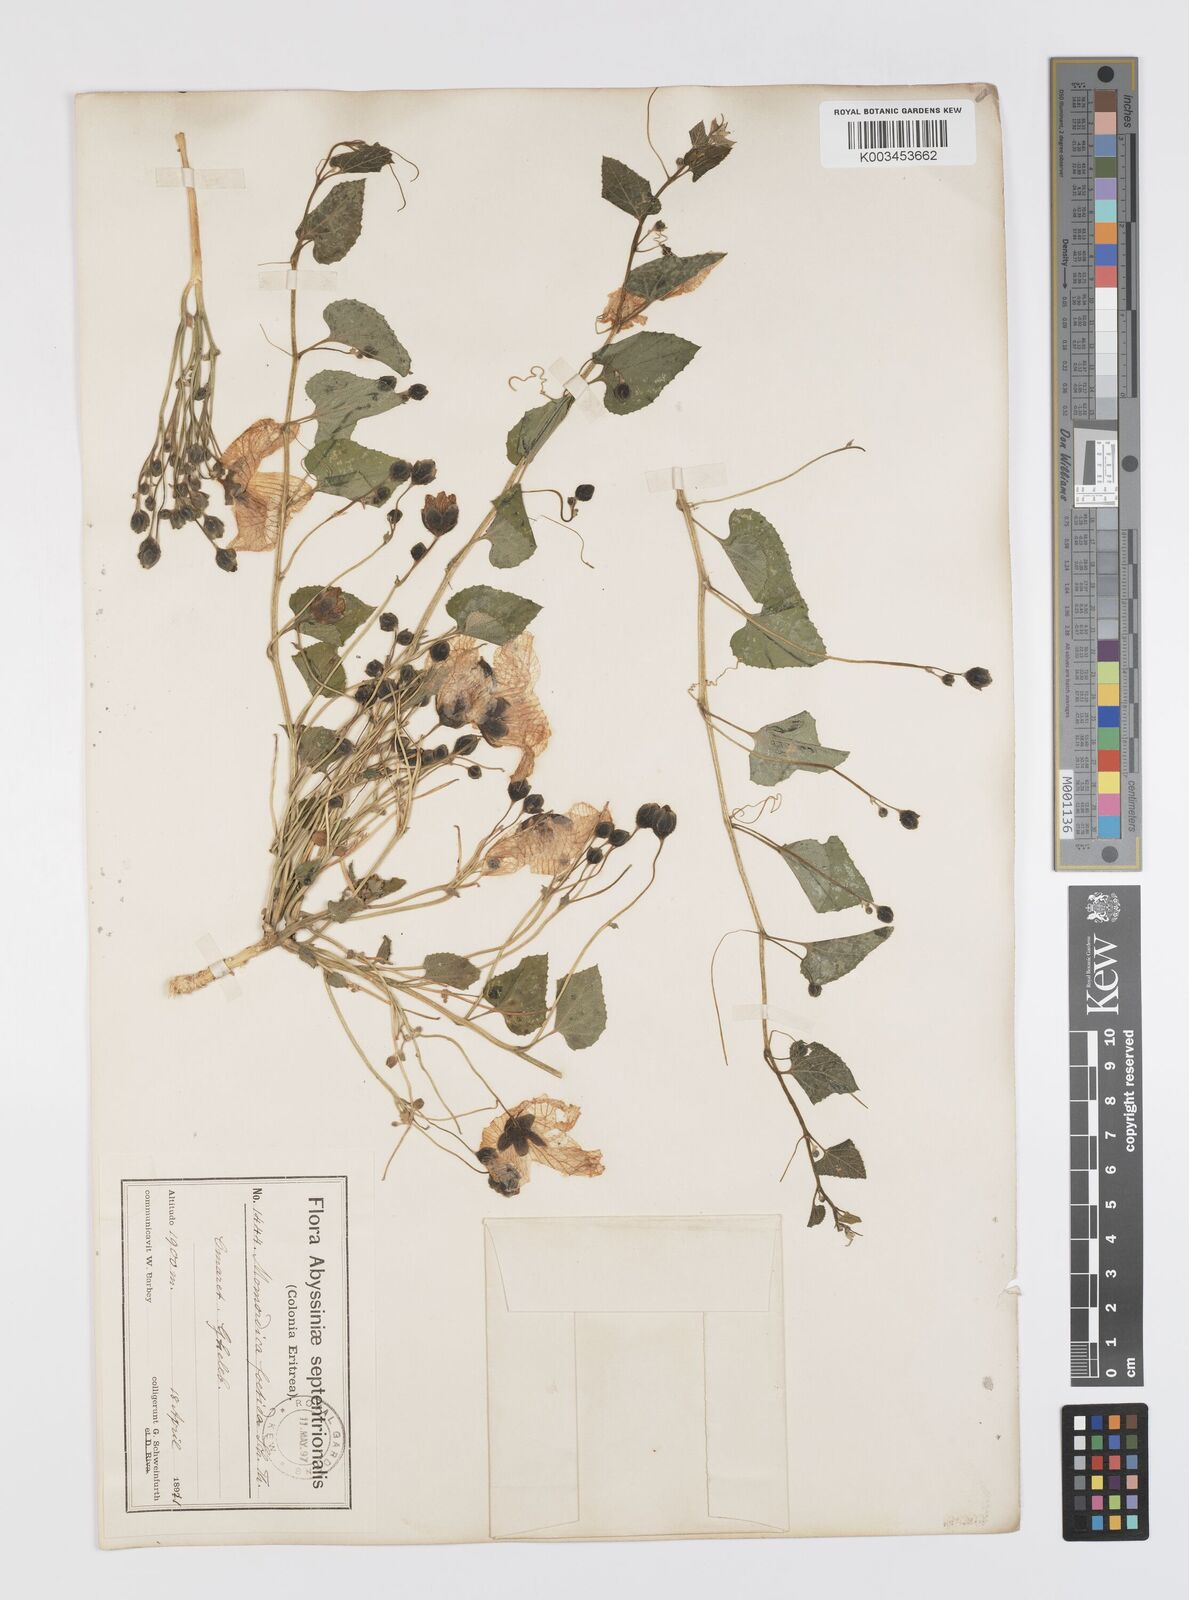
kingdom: Plantae
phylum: Tracheophyta
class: Magnoliopsida
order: Cucurbitales
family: Cucurbitaceae
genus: Momordica
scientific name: Momordica foetida
